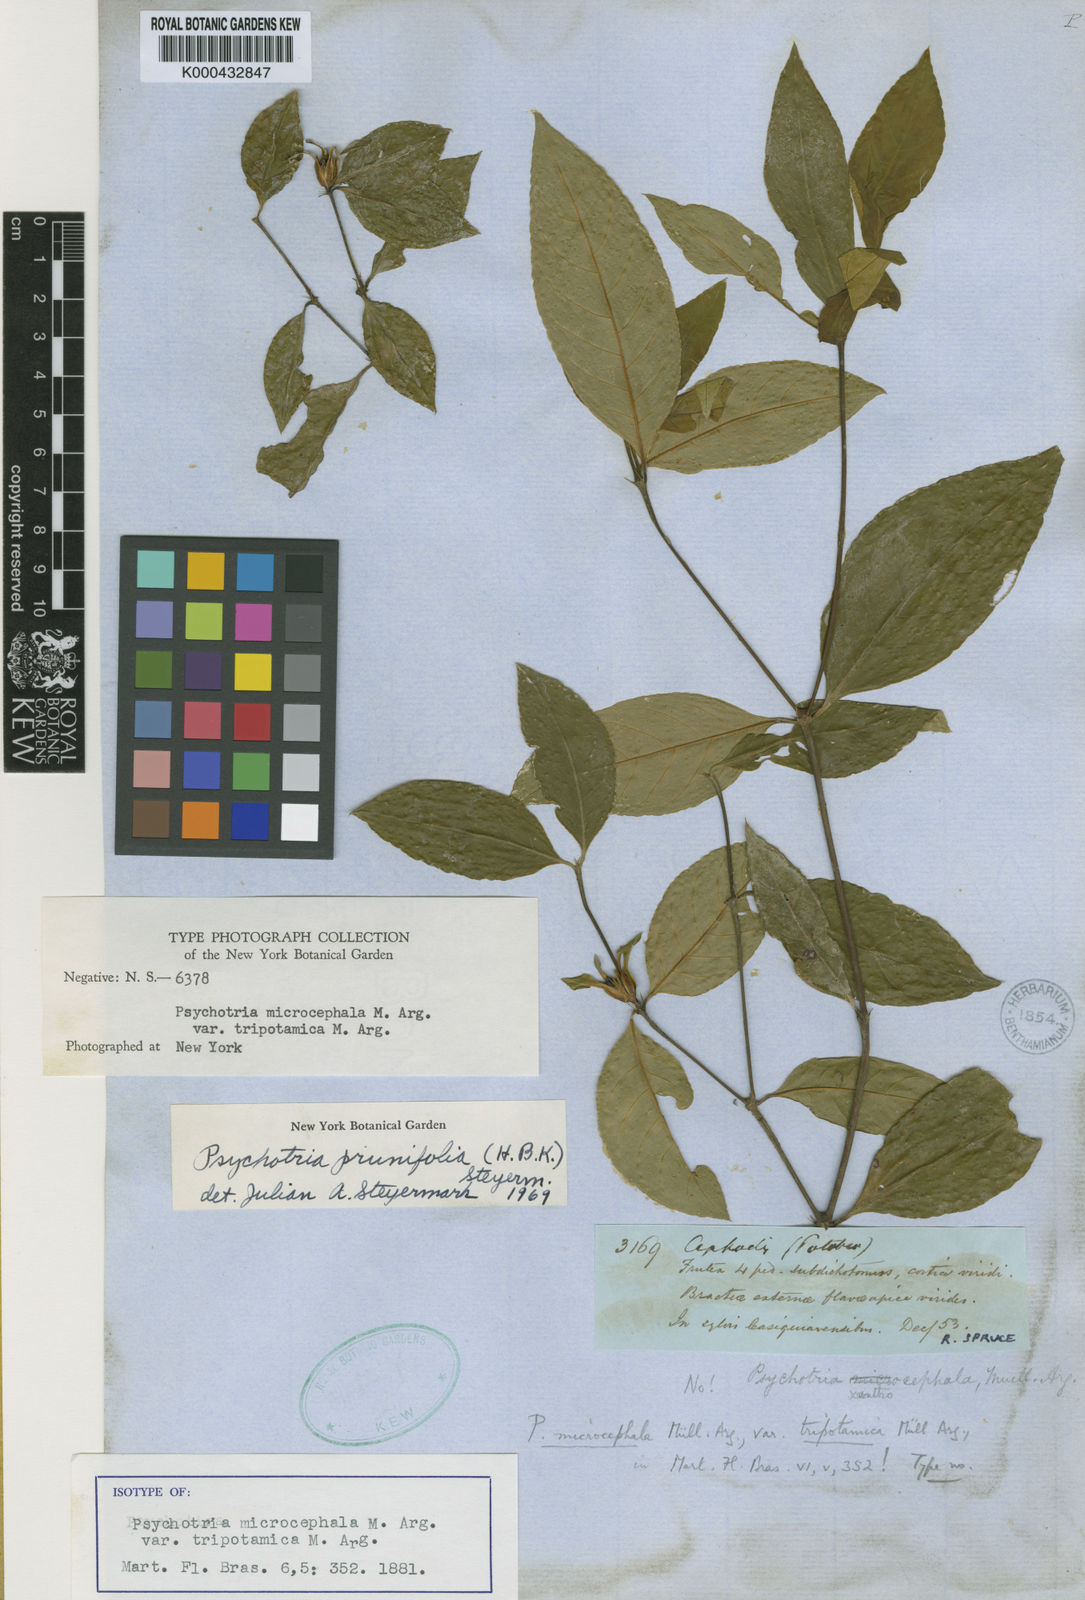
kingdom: Plantae
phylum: Tracheophyta
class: Magnoliopsida
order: Gentianales
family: Rubiaceae
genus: Palicourea
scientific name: Palicourea prunifolia
